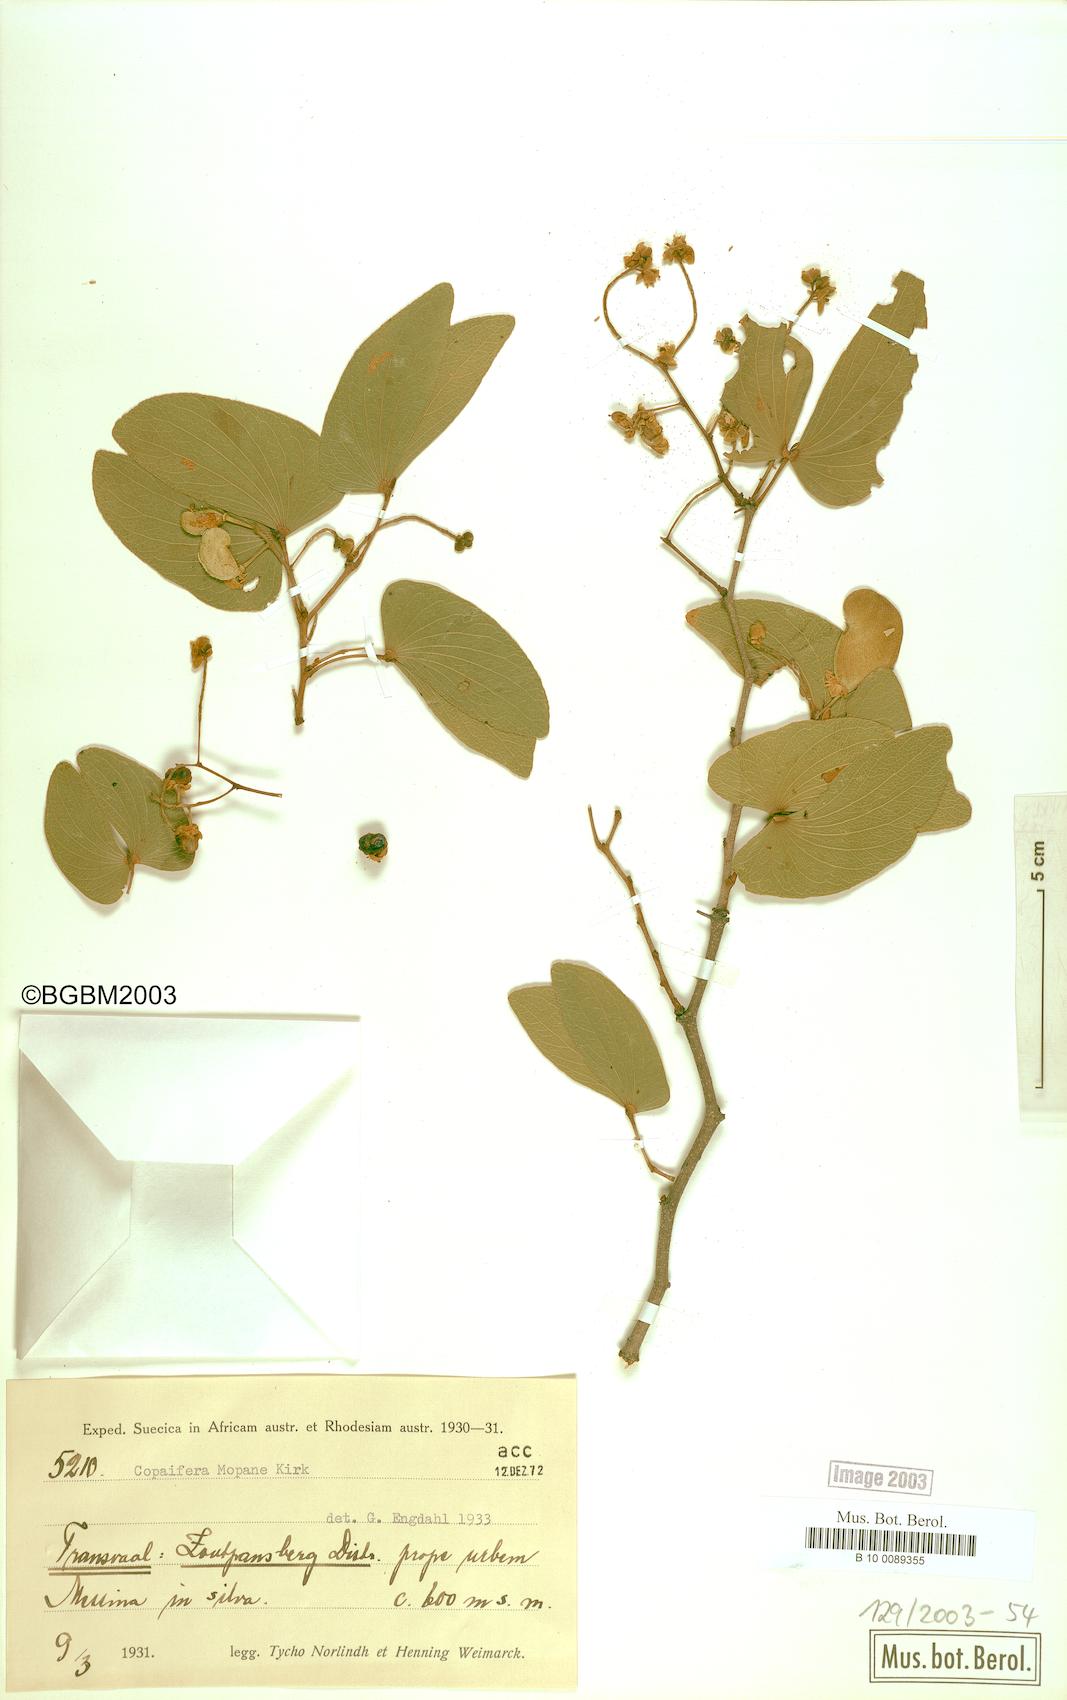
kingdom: Plantae
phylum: Tracheophyta
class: Magnoliopsida
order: Fabales
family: Fabaceae
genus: Colophospermum
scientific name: Colophospermum mopane
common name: Mopane
